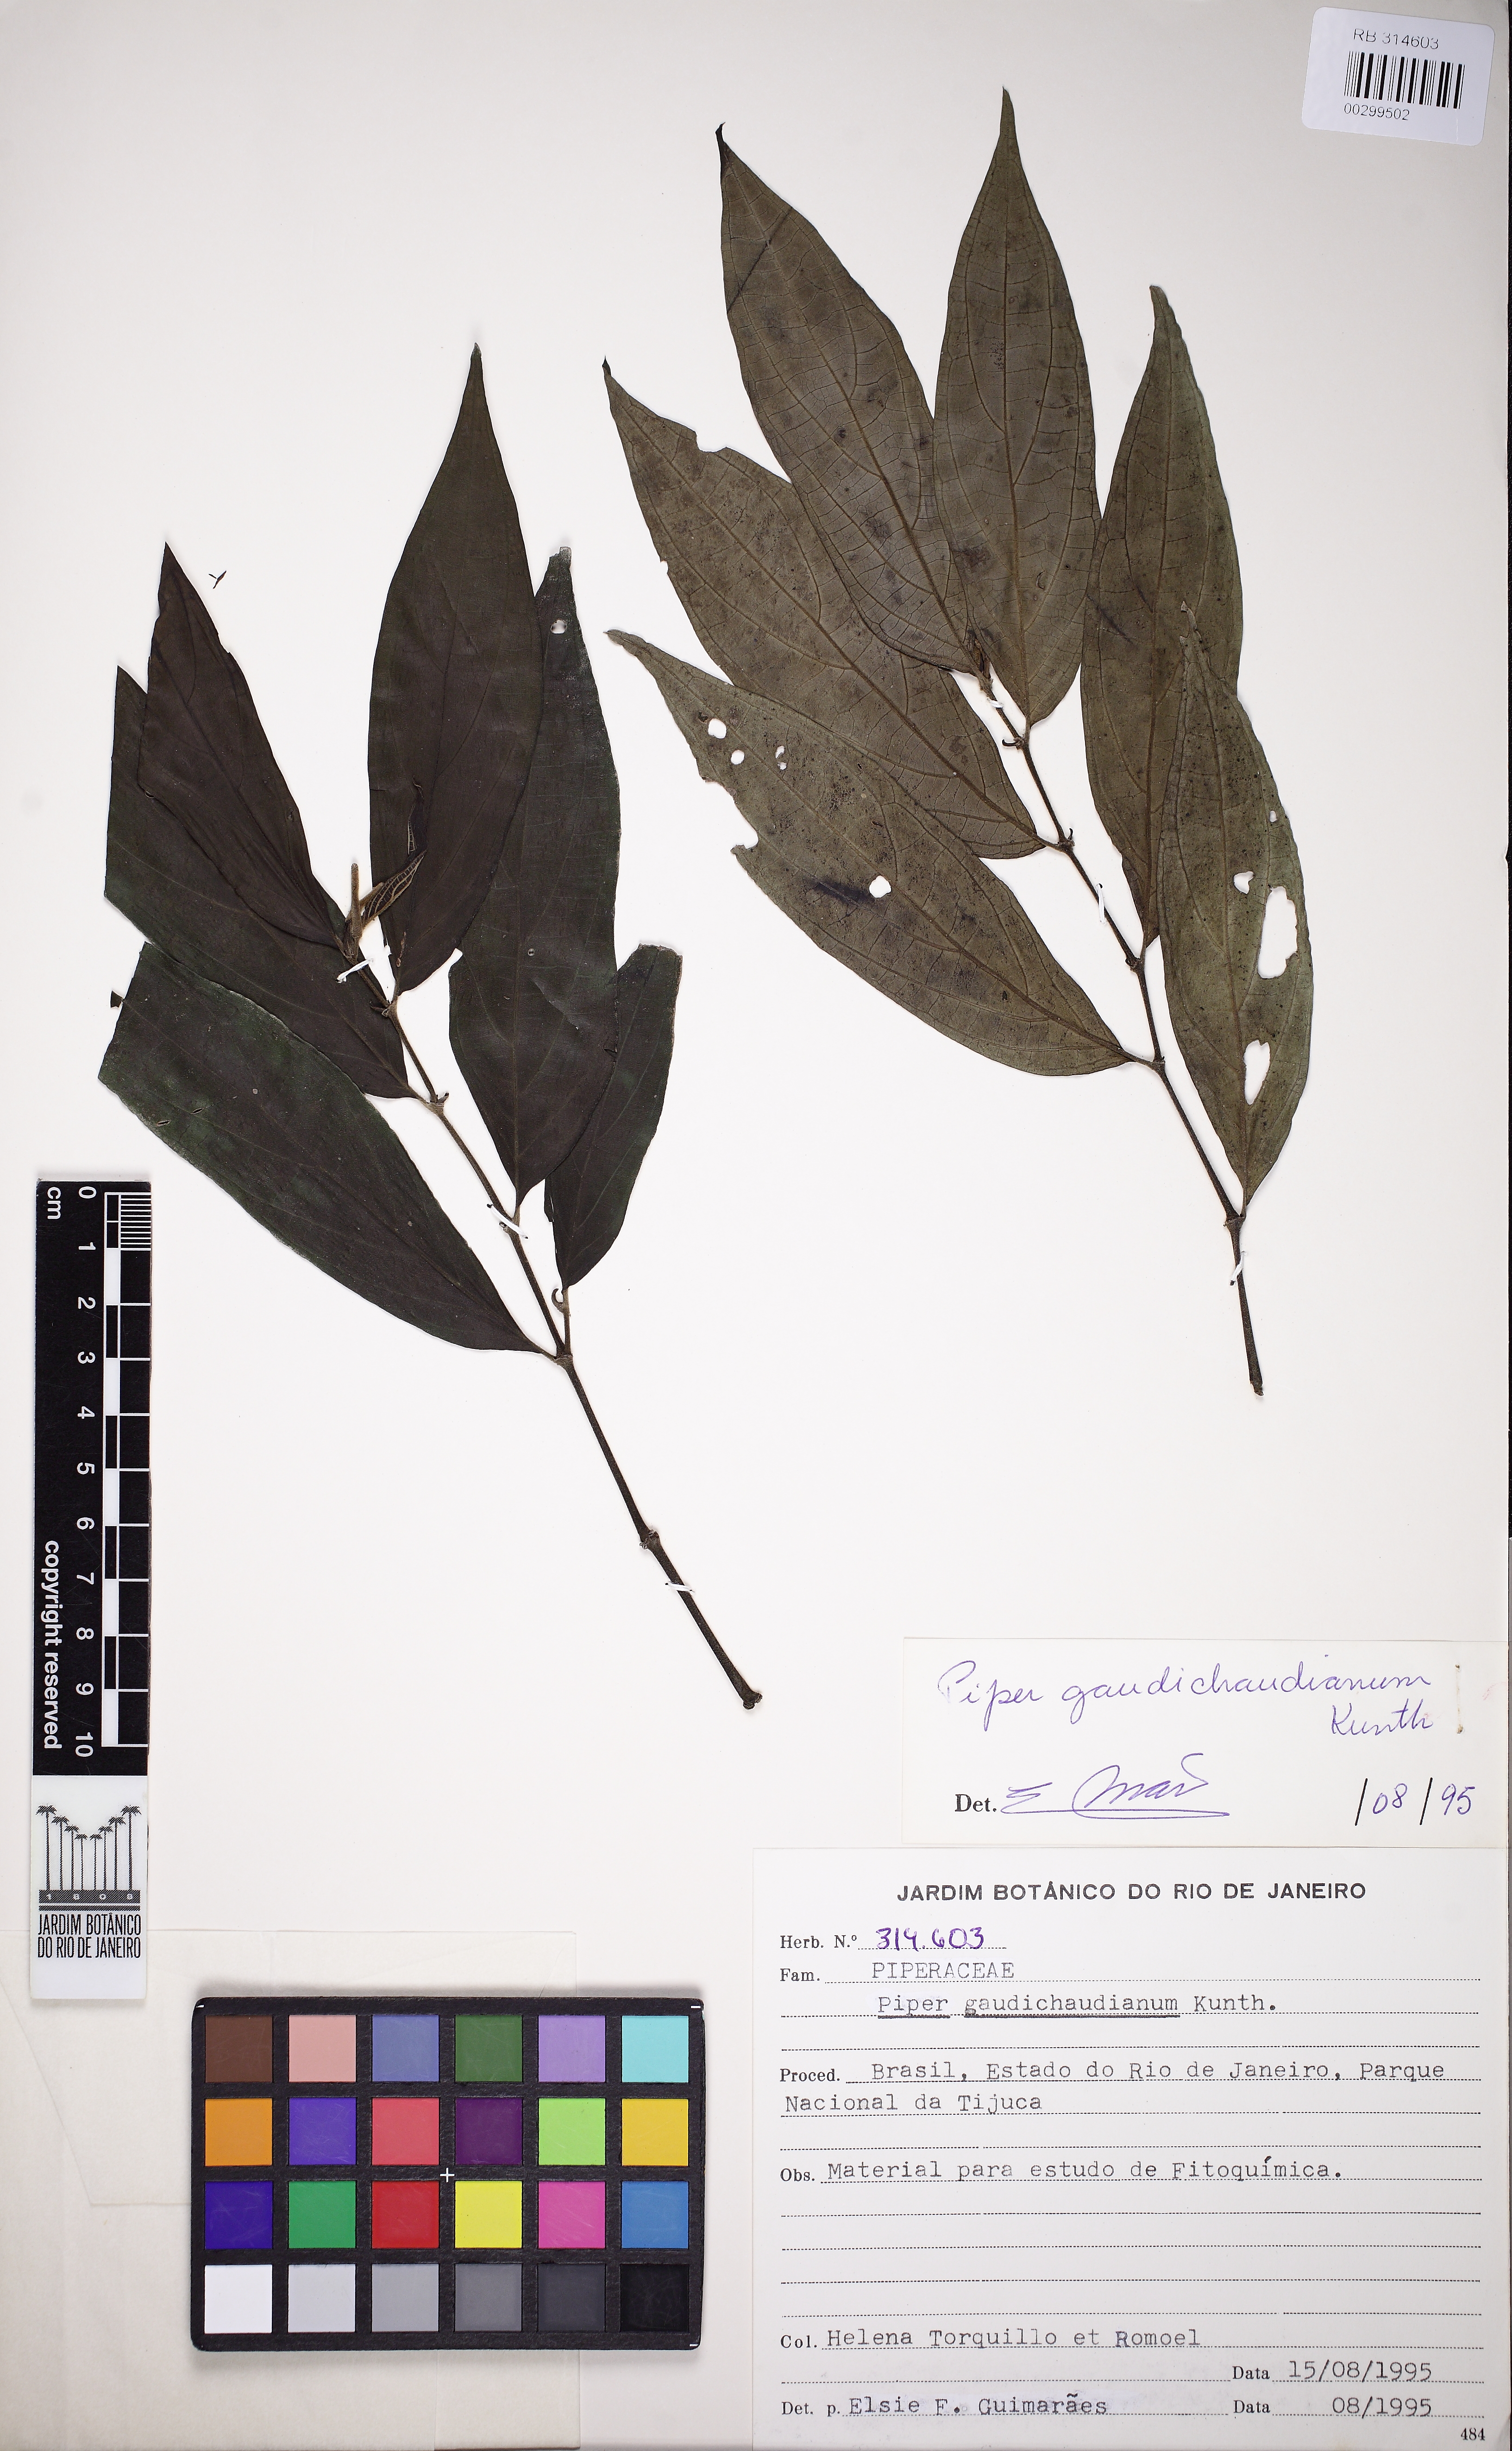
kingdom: Plantae
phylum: Tracheophyta
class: Magnoliopsida
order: Piperales
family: Piperaceae
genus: Piper
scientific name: Piper gaudichaudianum
